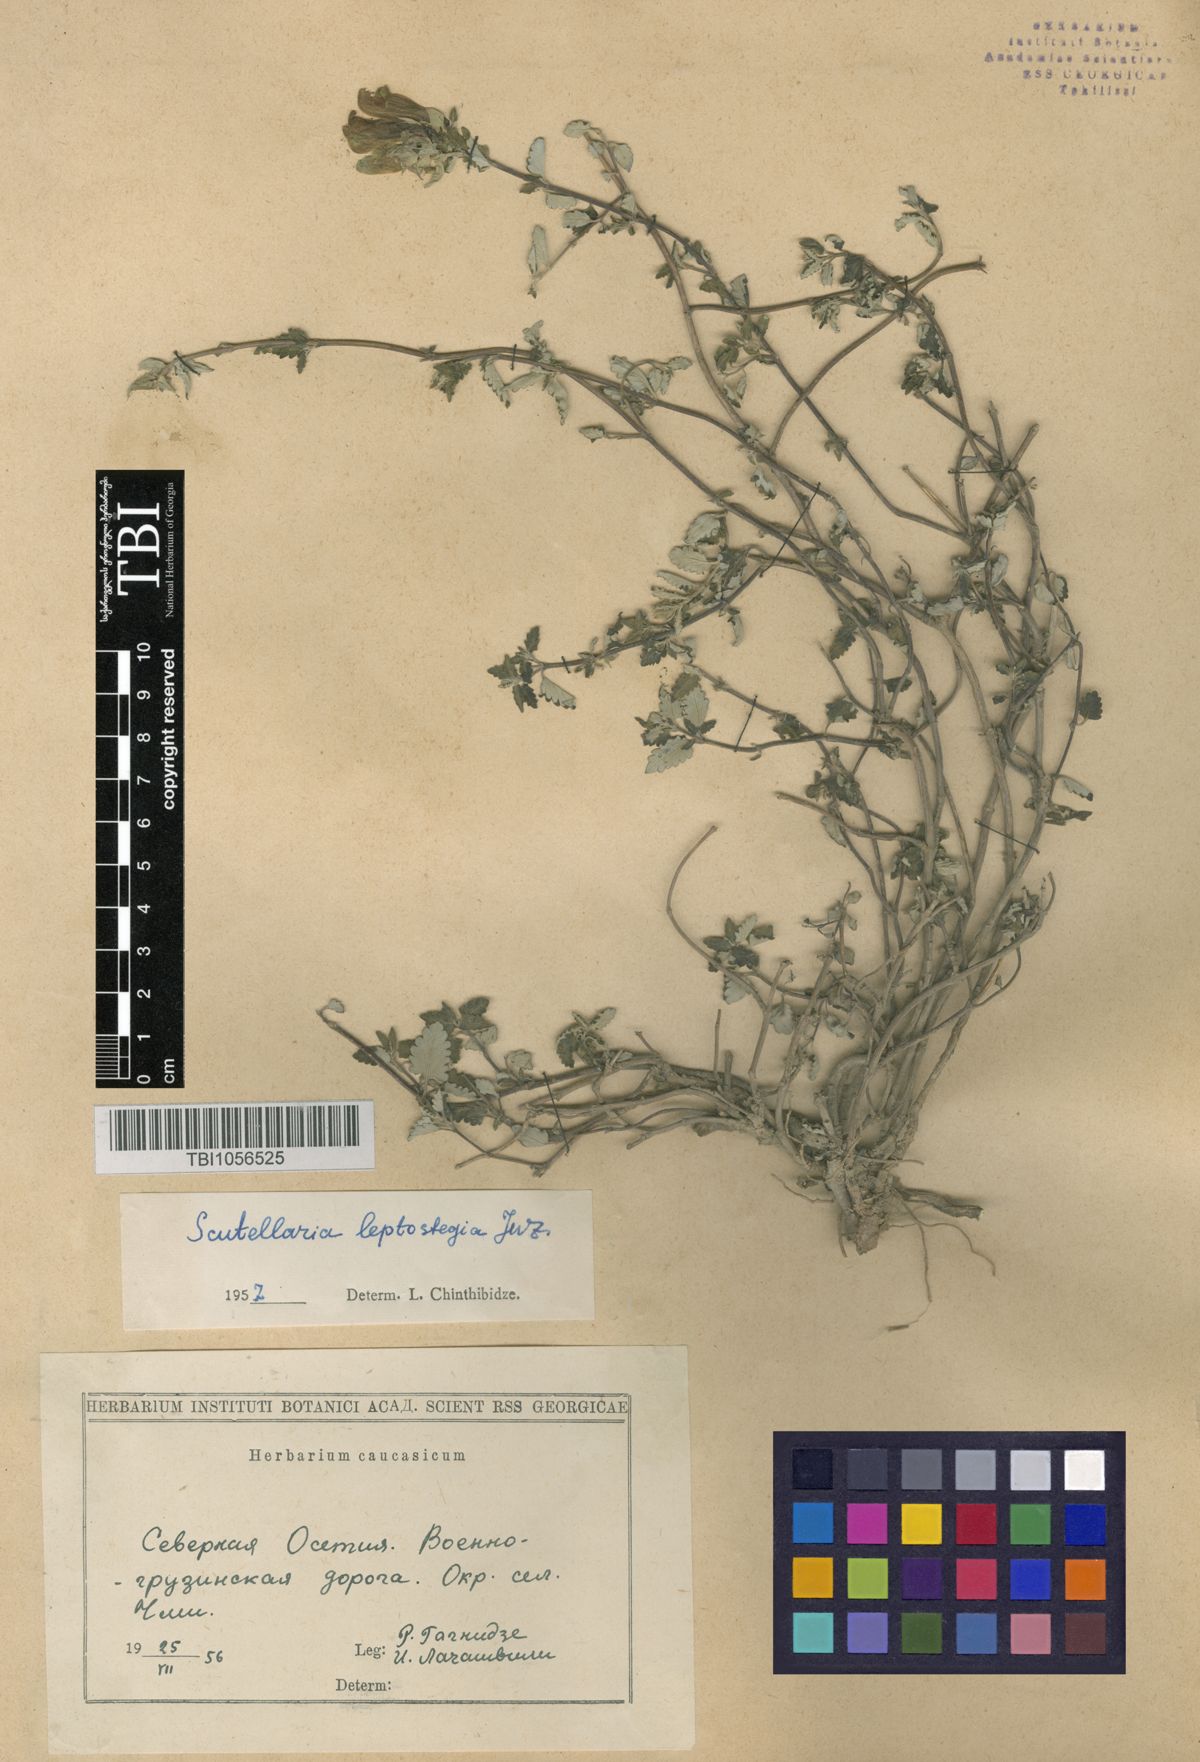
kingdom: Plantae
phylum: Tracheophyta
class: Magnoliopsida
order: Lamiales
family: Lamiaceae
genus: Scutellaria
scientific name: Scutellaria leptostegia
